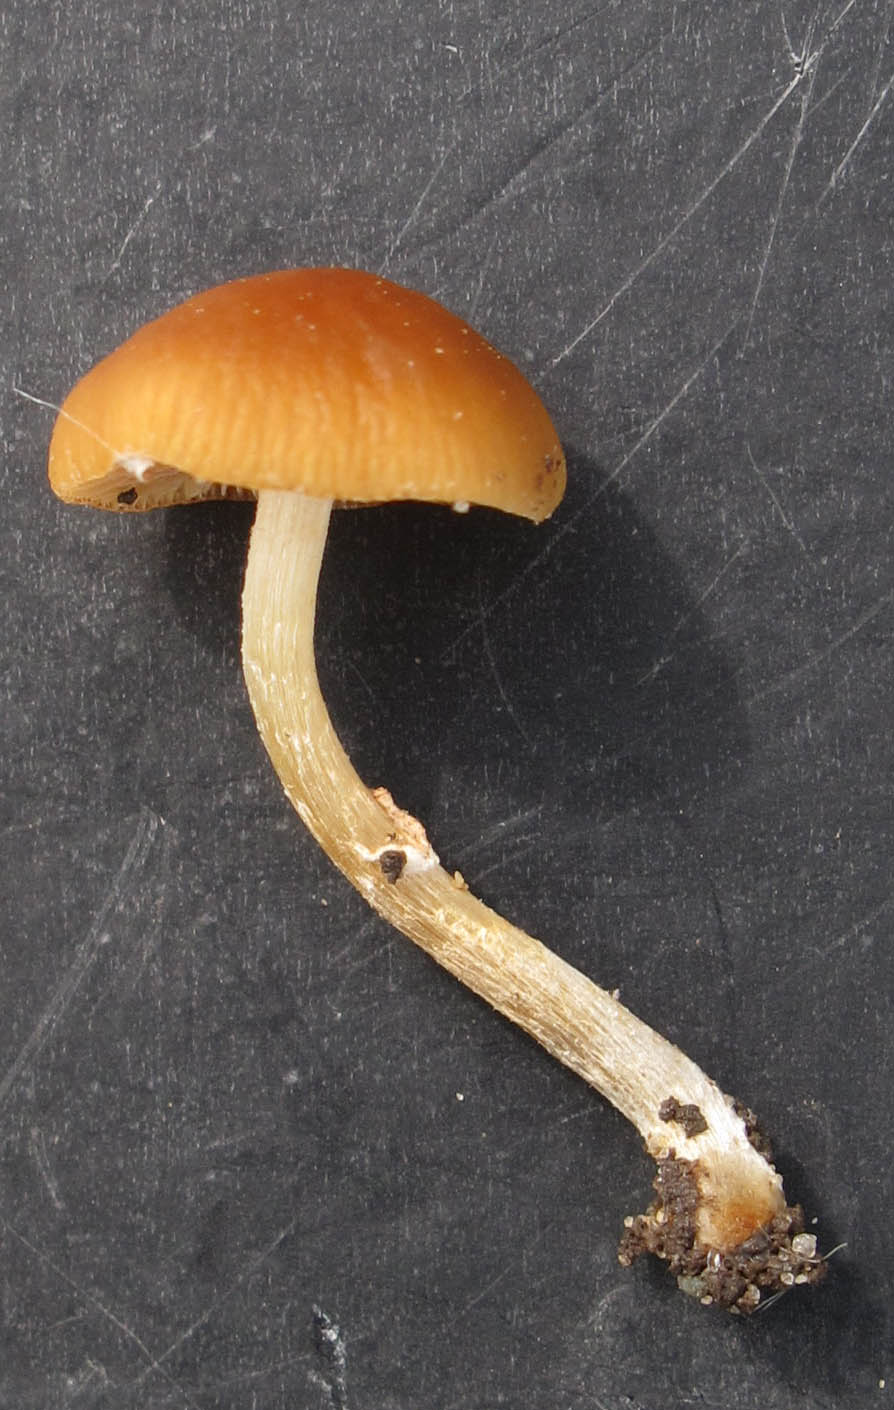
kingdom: Fungi
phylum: Basidiomycota
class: Agaricomycetes
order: Agaricales
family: Bolbitiaceae
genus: Conocybe
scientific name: Conocybe aporos
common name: tidlig dansehat
